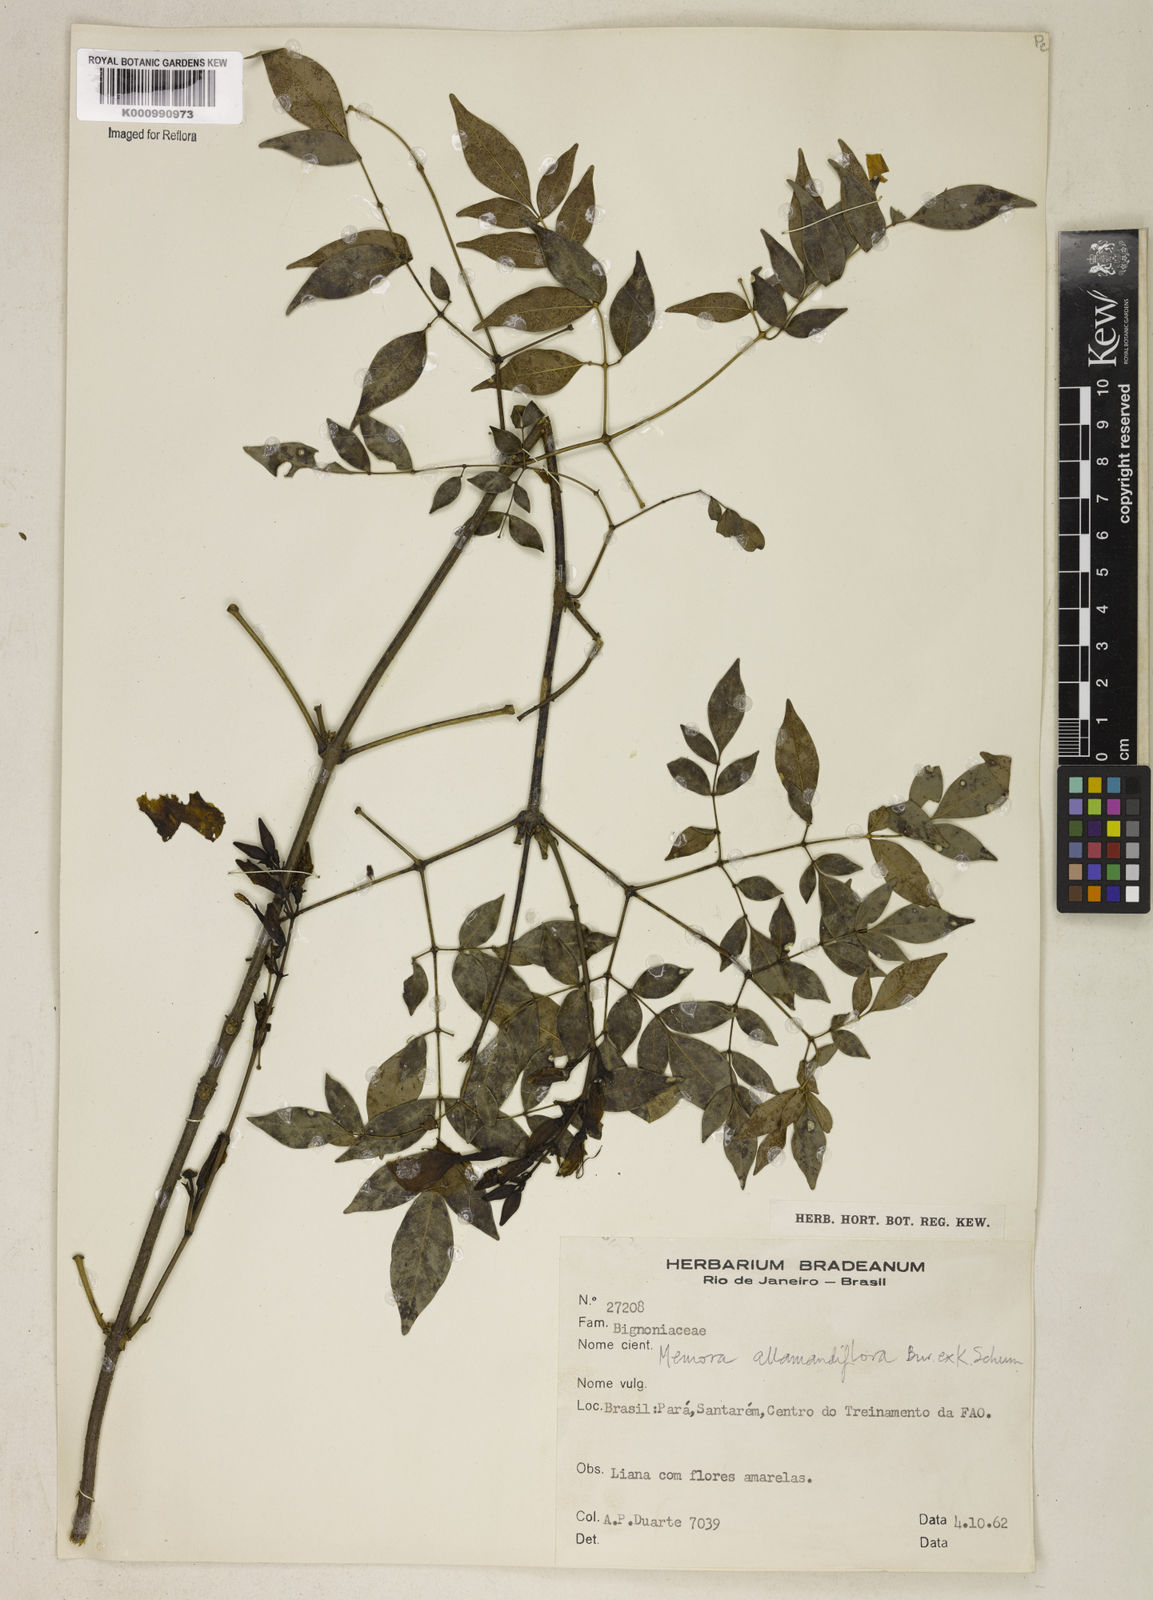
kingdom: Plantae
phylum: Tracheophyta
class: Magnoliopsida
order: Lamiales
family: Bignoniaceae
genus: Adenocalymma
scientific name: Adenocalymma
